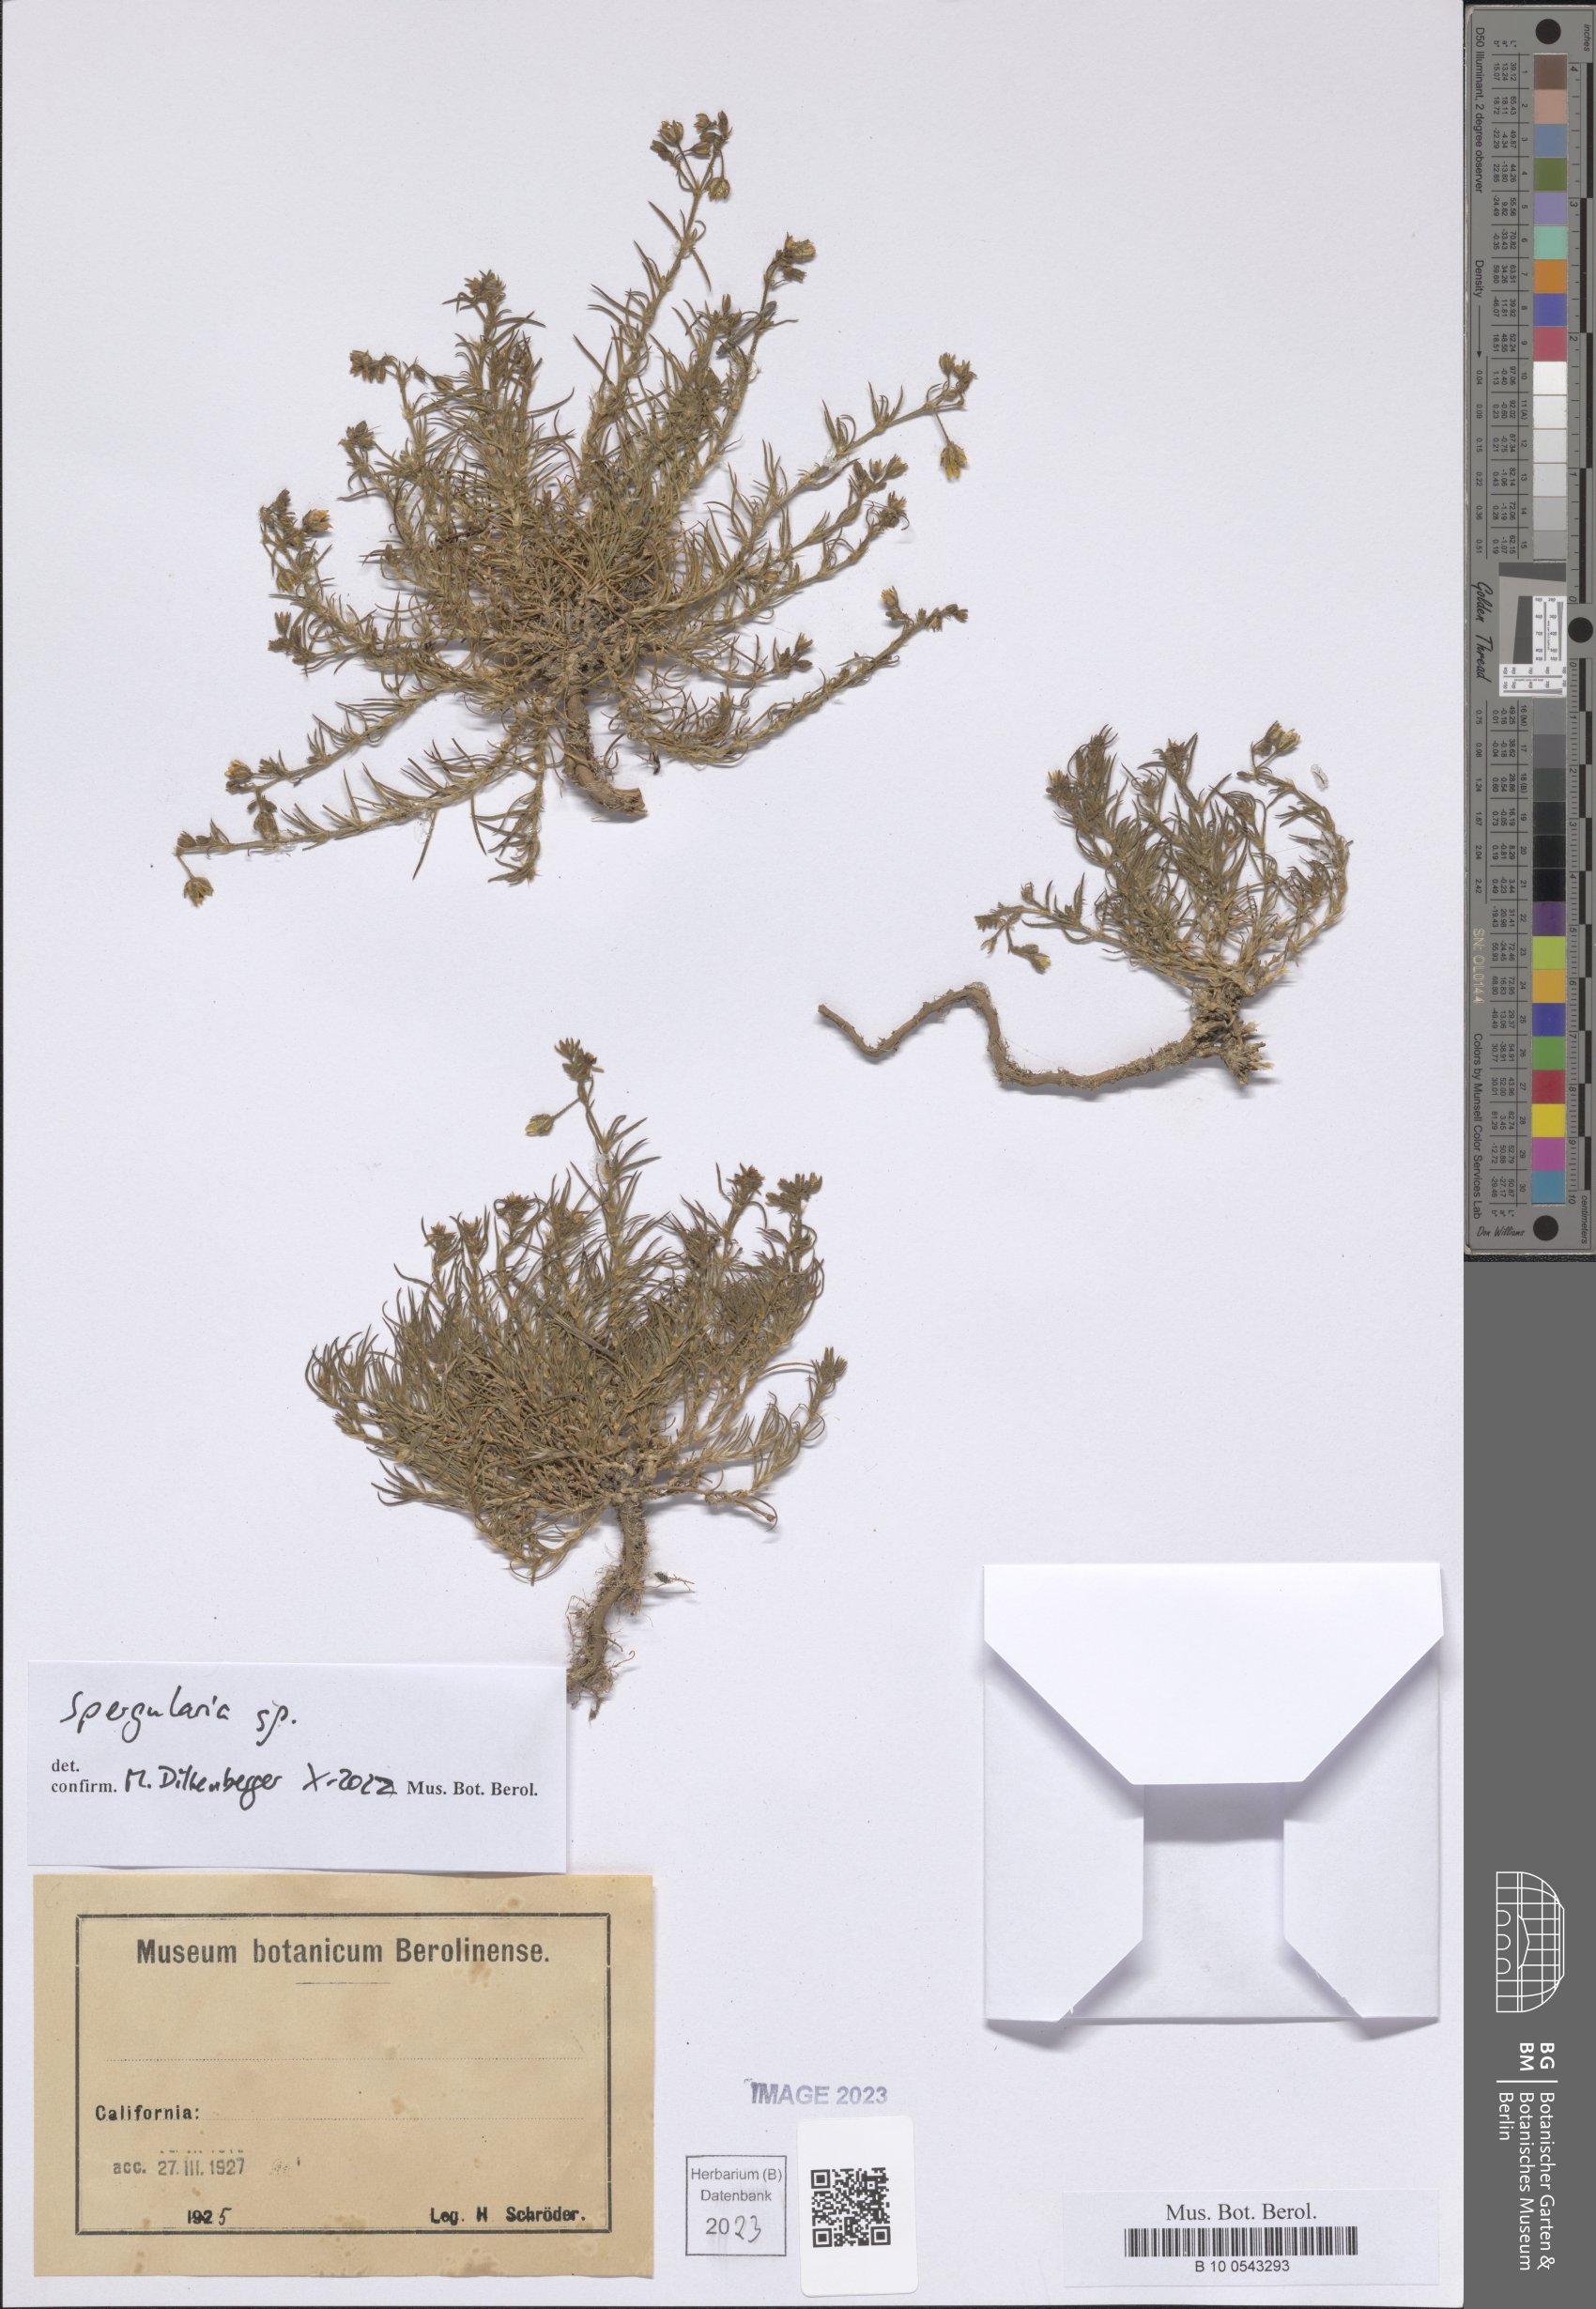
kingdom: Plantae
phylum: Tracheophyta
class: Magnoliopsida
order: Caryophyllales
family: Caryophyllaceae
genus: Spergularia
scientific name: Spergularia
